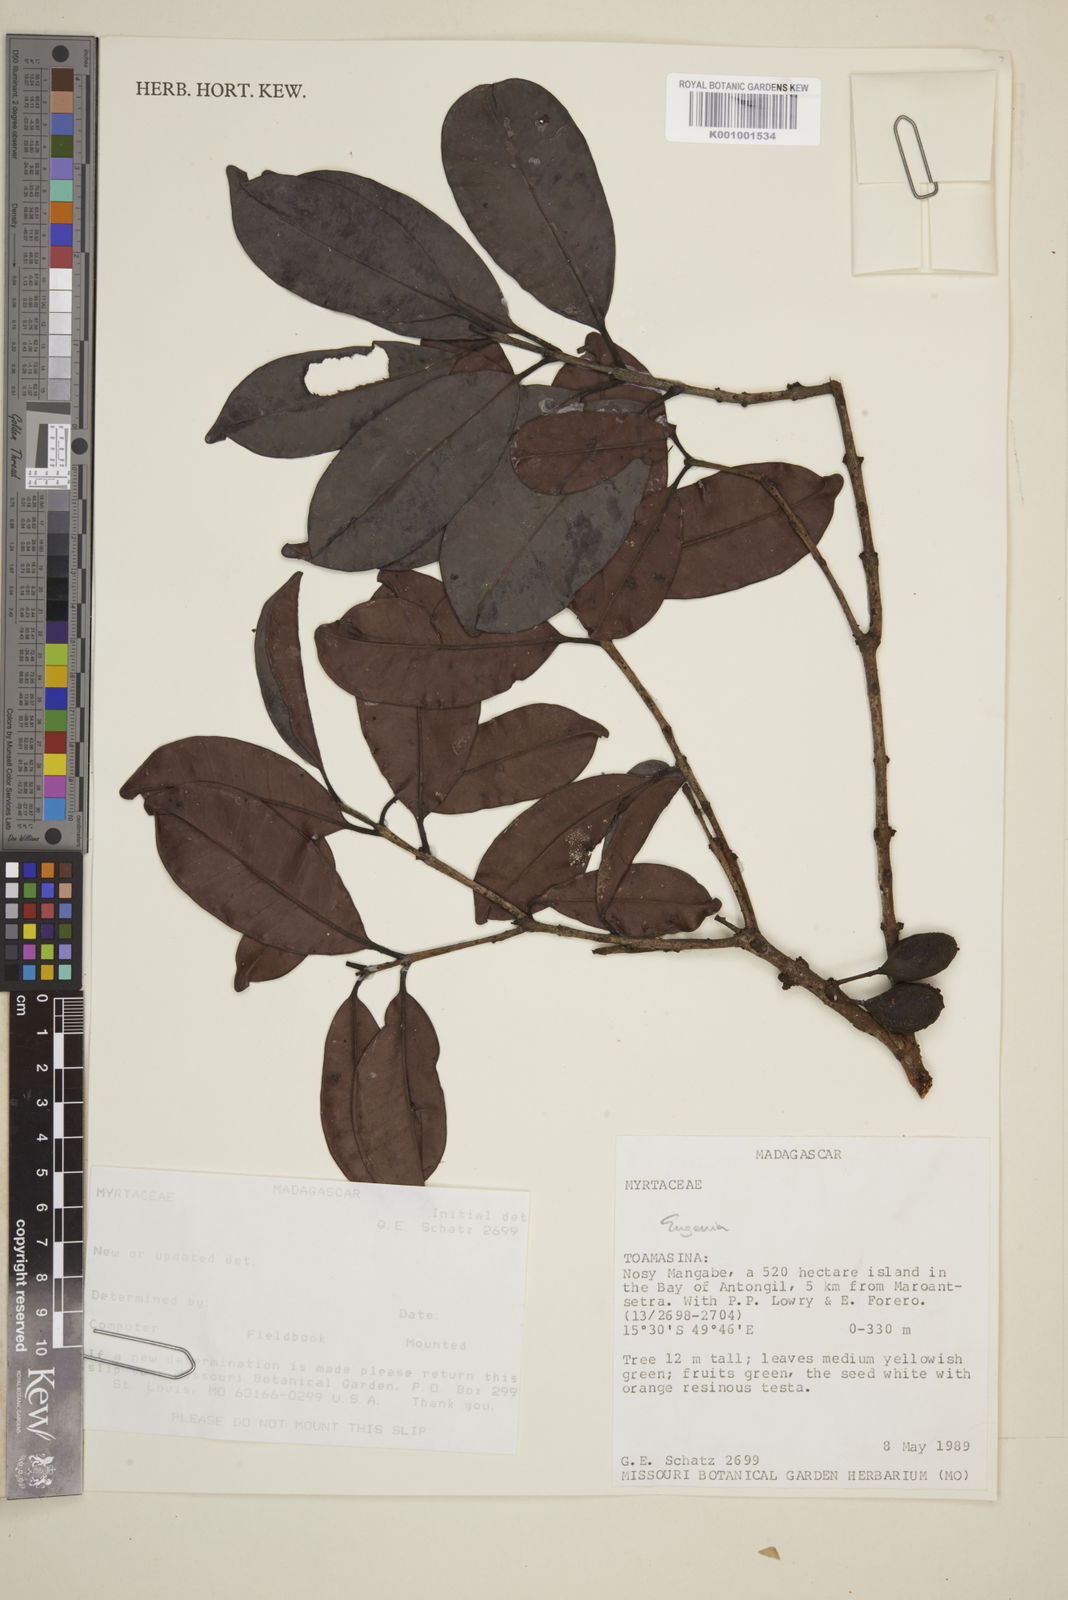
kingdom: Plantae
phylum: Tracheophyta
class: Magnoliopsida
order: Myrtales
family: Myrtaceae
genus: Eugenia
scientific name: Eugenia
